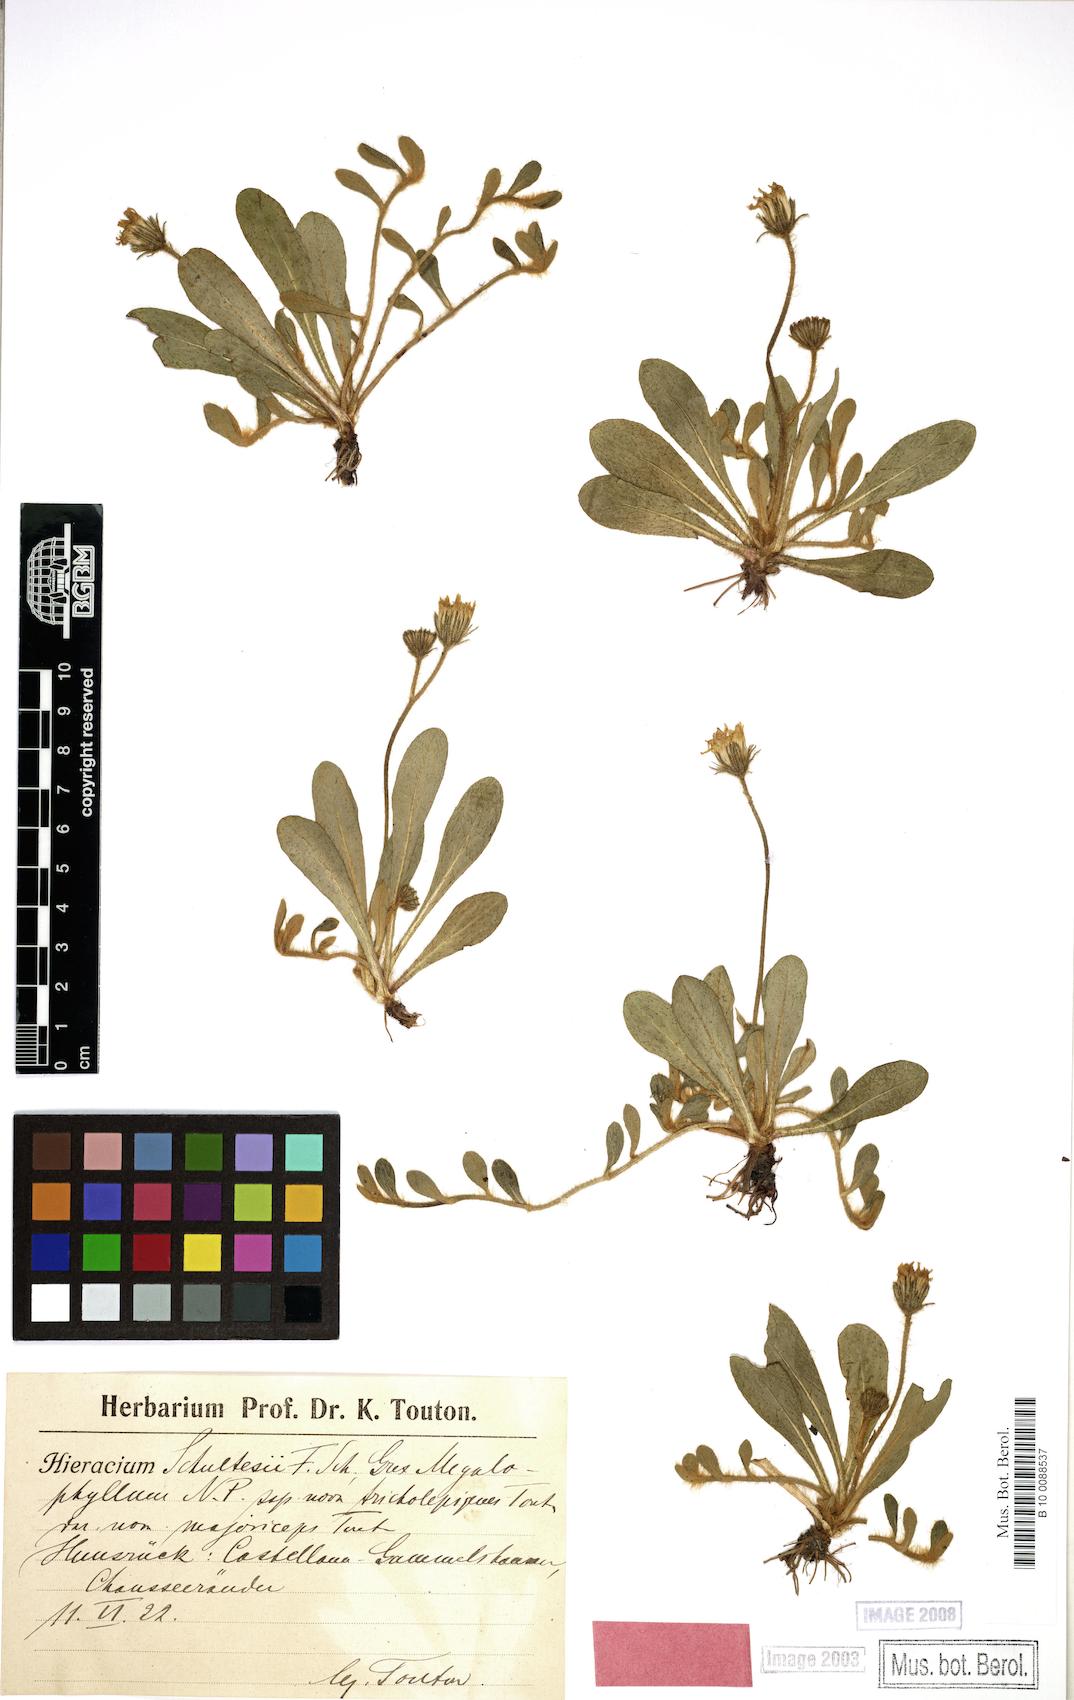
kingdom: Plantae
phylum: Tracheophyta
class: Magnoliopsida
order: Asterales
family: Asteraceae
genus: Pilosella
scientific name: Pilosella schultesii
